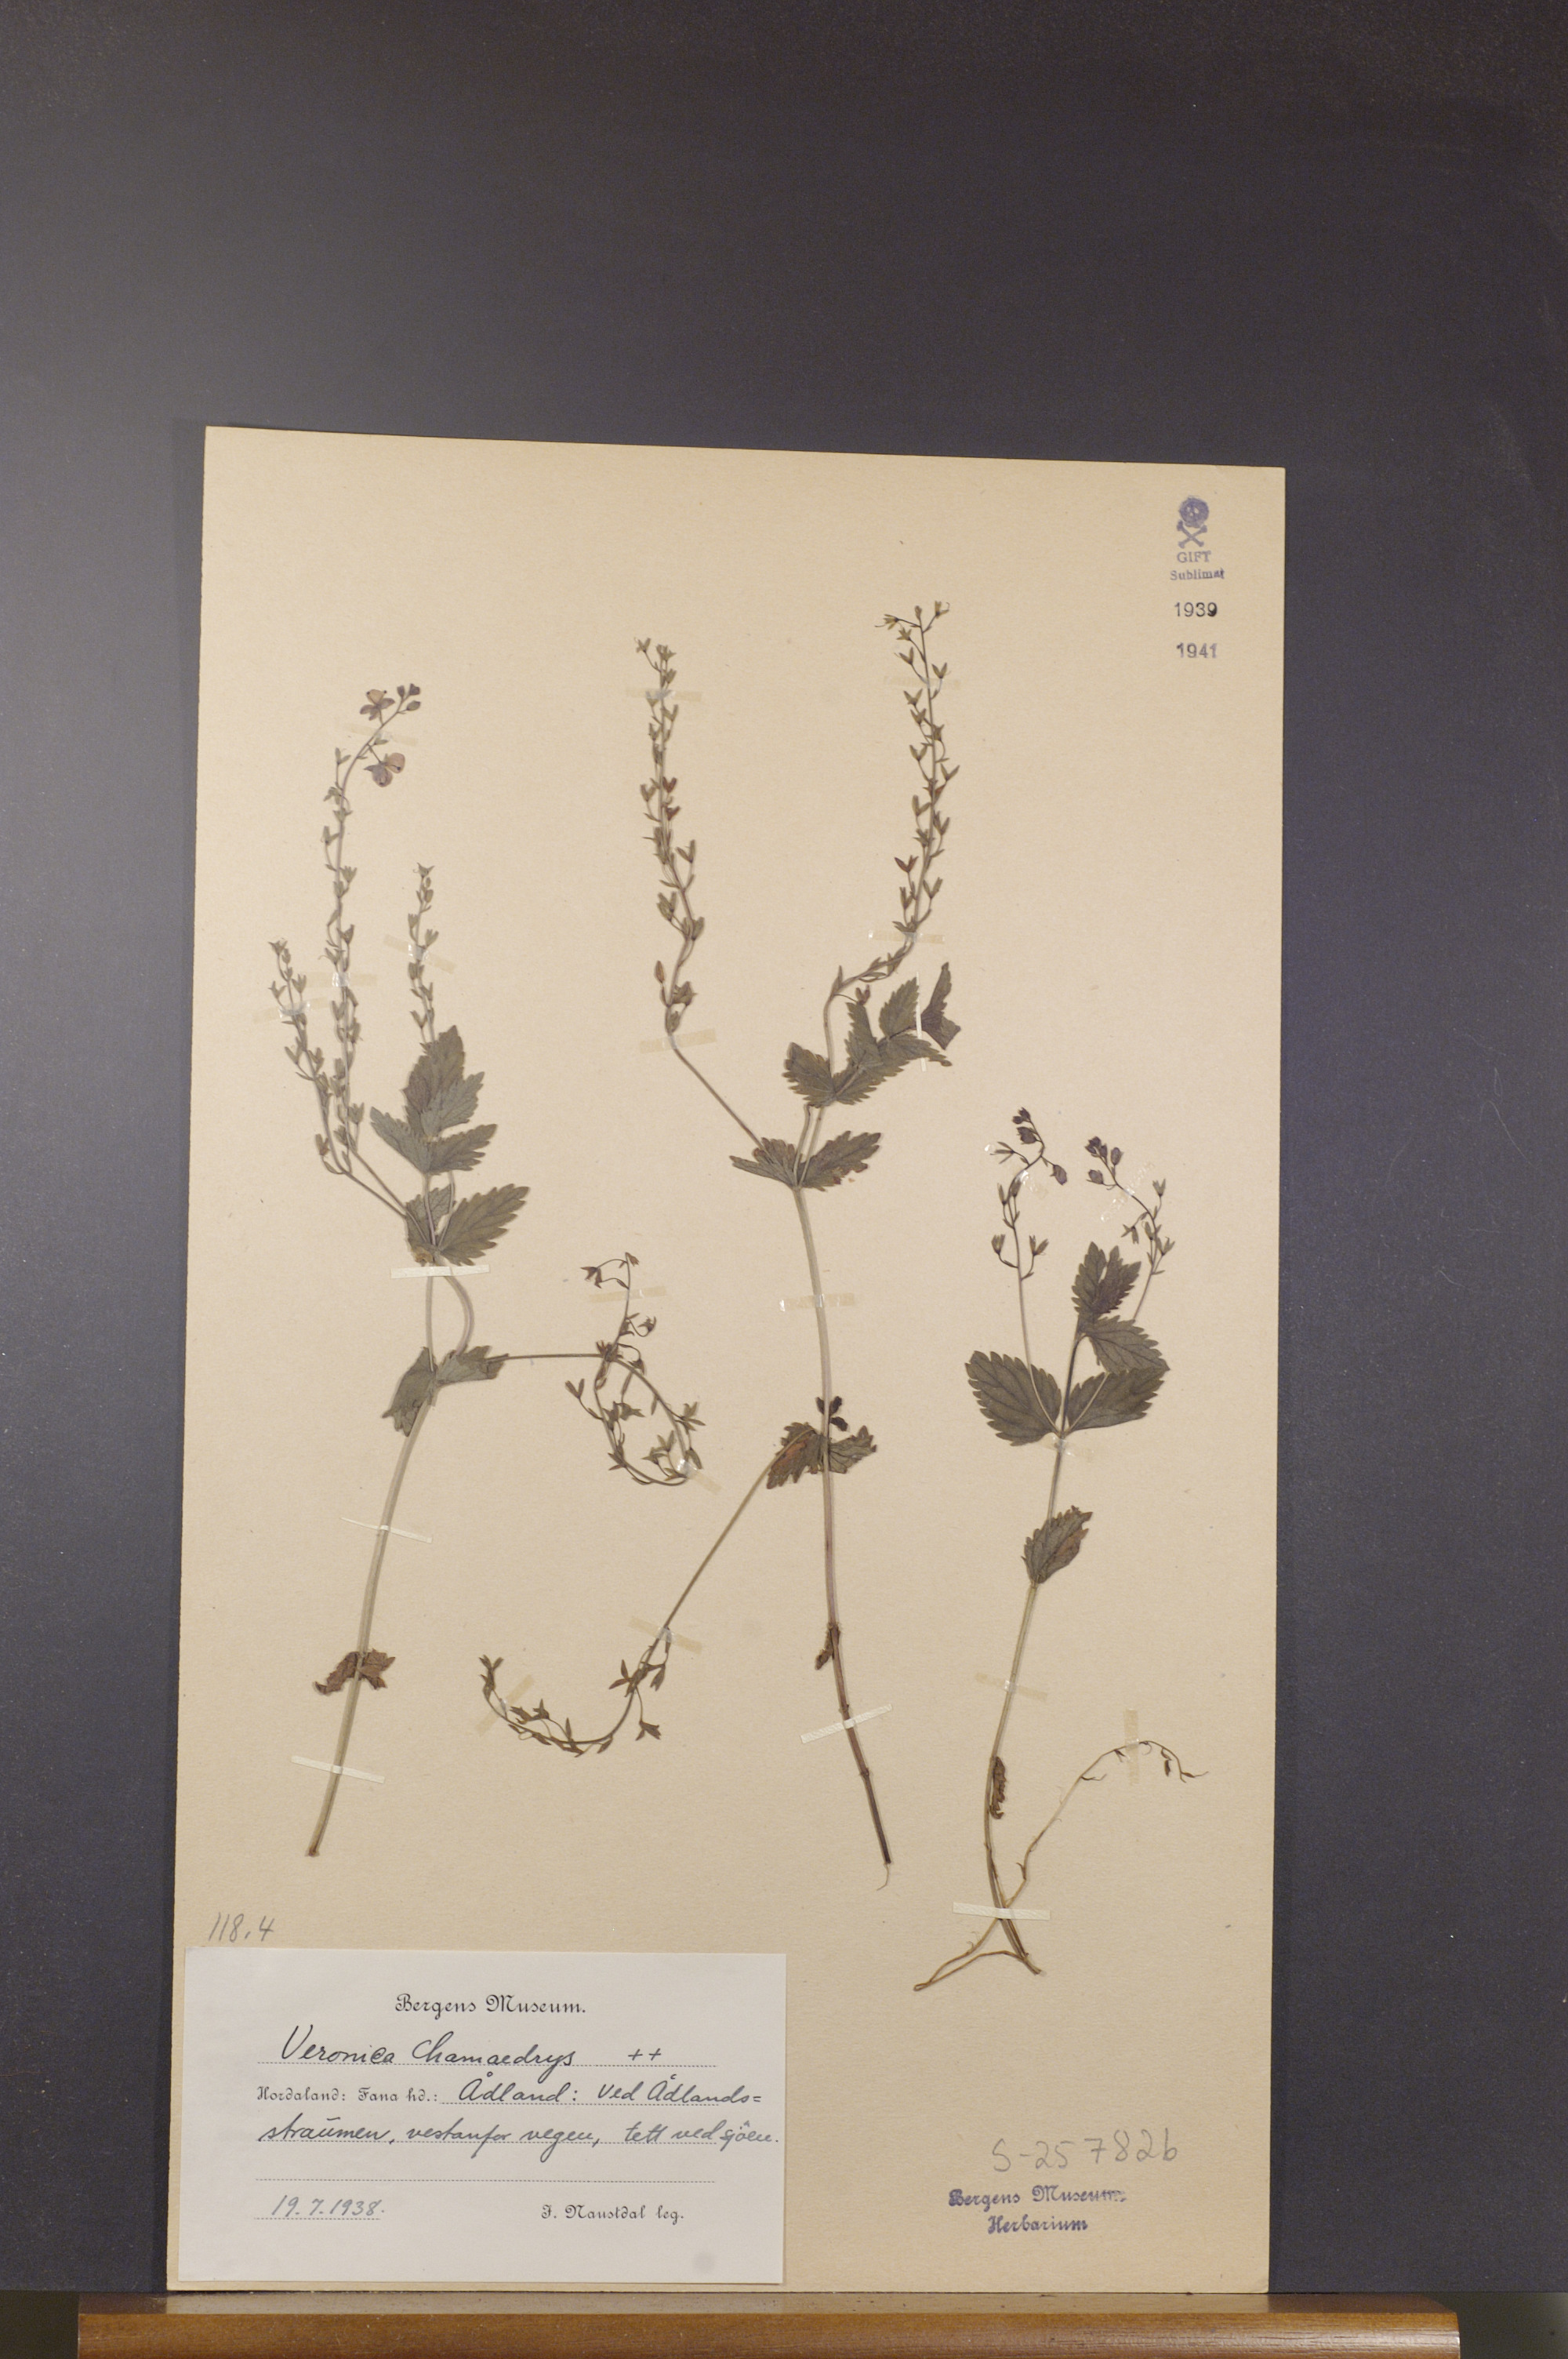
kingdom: Plantae
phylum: Tracheophyta
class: Magnoliopsida
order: Lamiales
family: Plantaginaceae
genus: Veronica
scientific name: Veronica chamaedrys
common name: Germander speedwell
